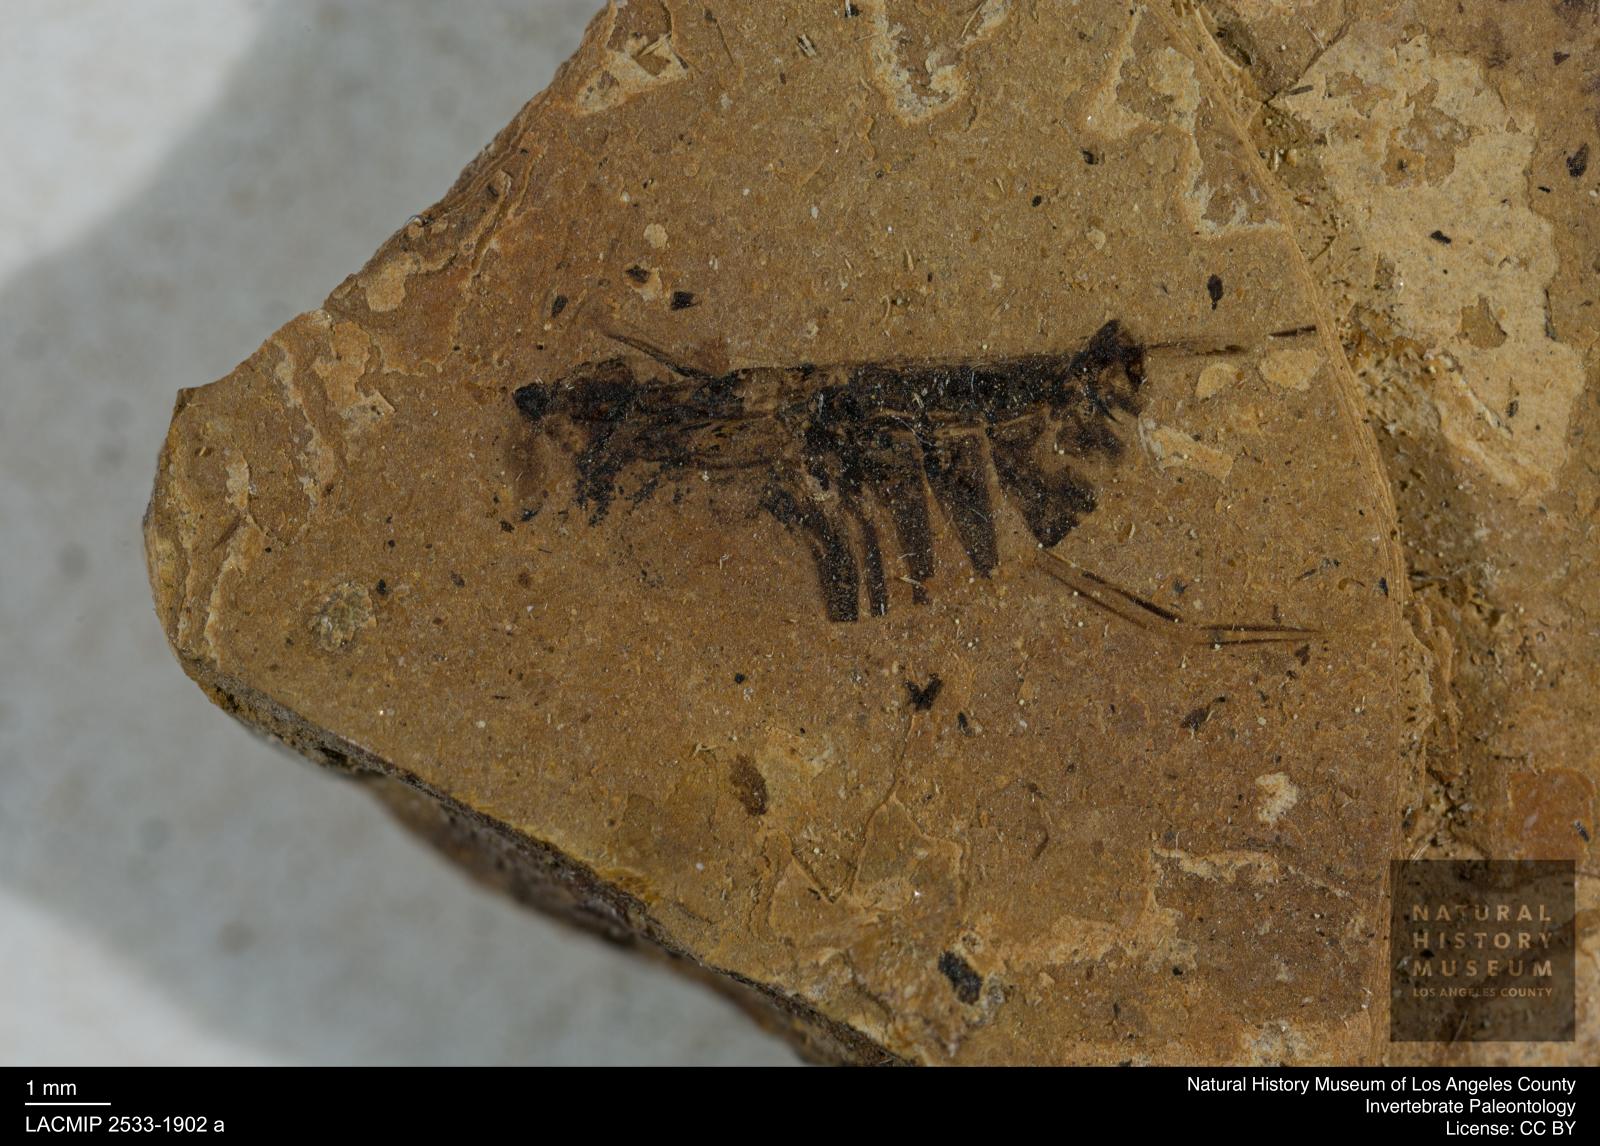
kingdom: Animalia
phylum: Arthropoda
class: Insecta
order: Hemiptera
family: Notonectidae
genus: Anisops
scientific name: Anisops Notonecta deichmuelleri
